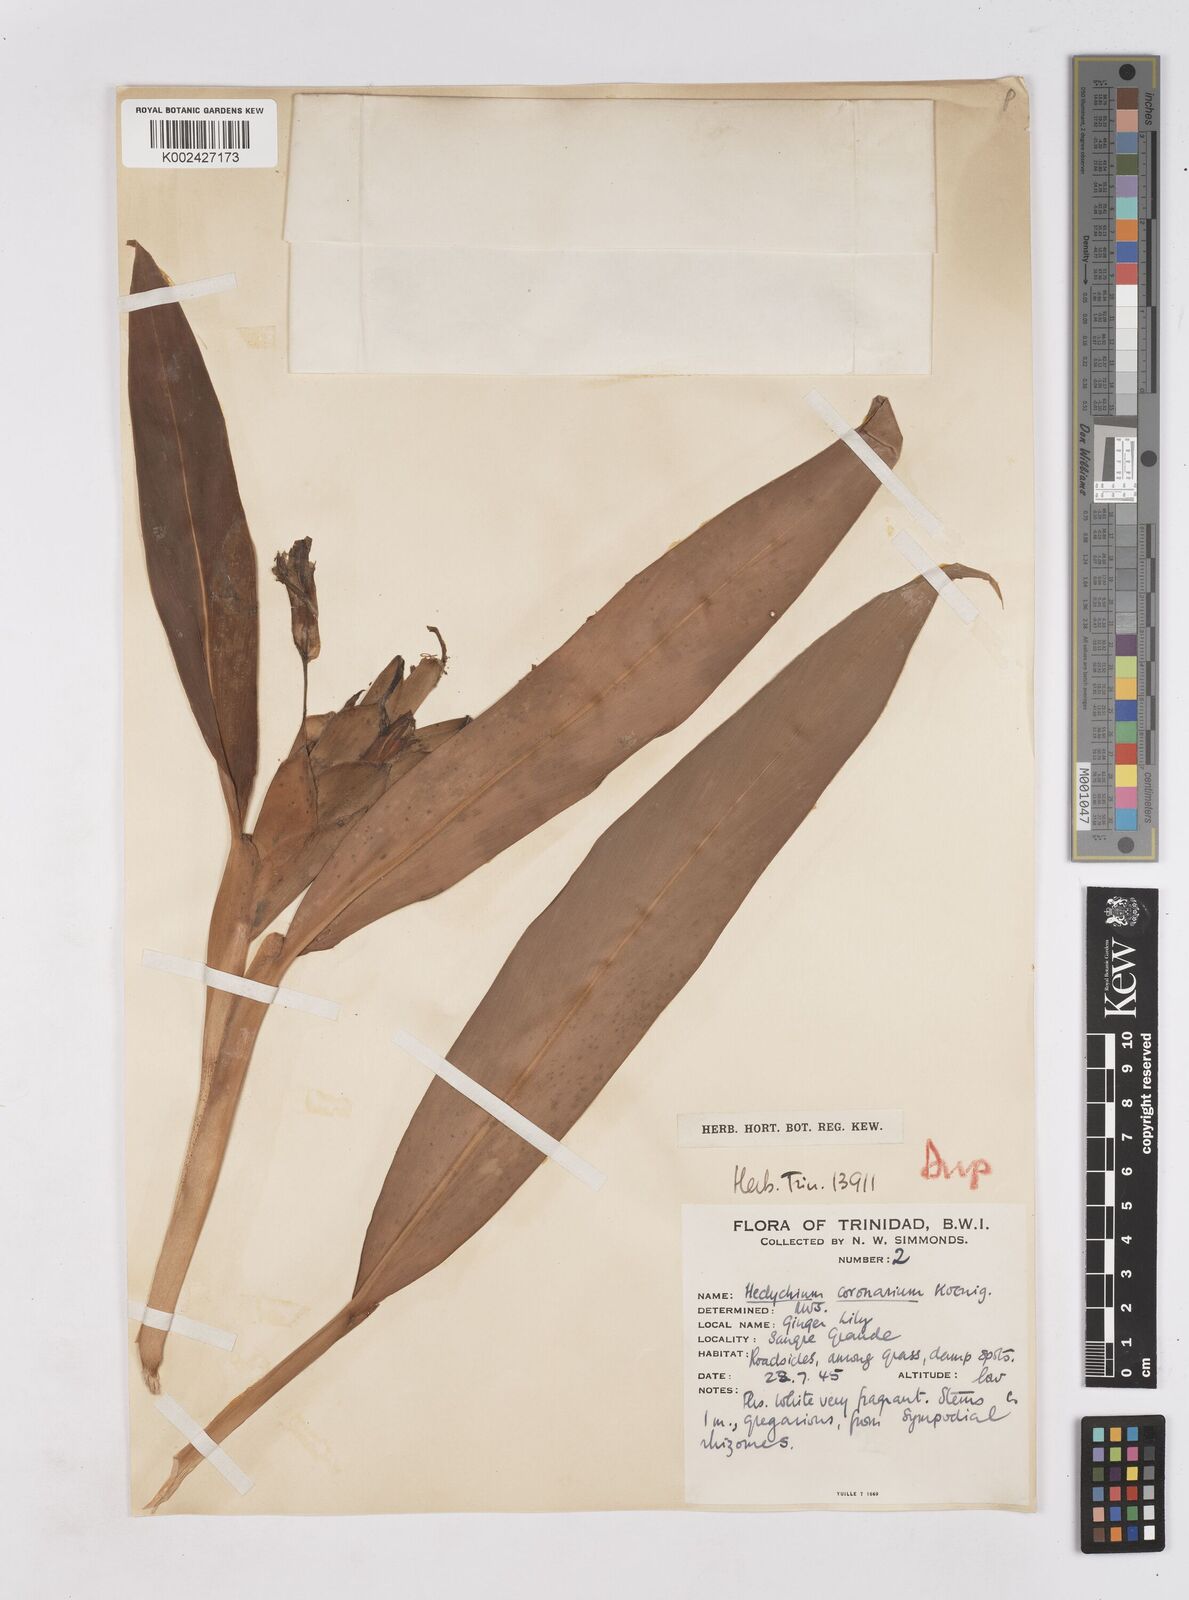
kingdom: Plantae
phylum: Tracheophyta
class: Liliopsida
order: Zingiberales
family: Zingiberaceae
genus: Hedychium
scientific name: Hedychium coronarium
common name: White garland-lily
